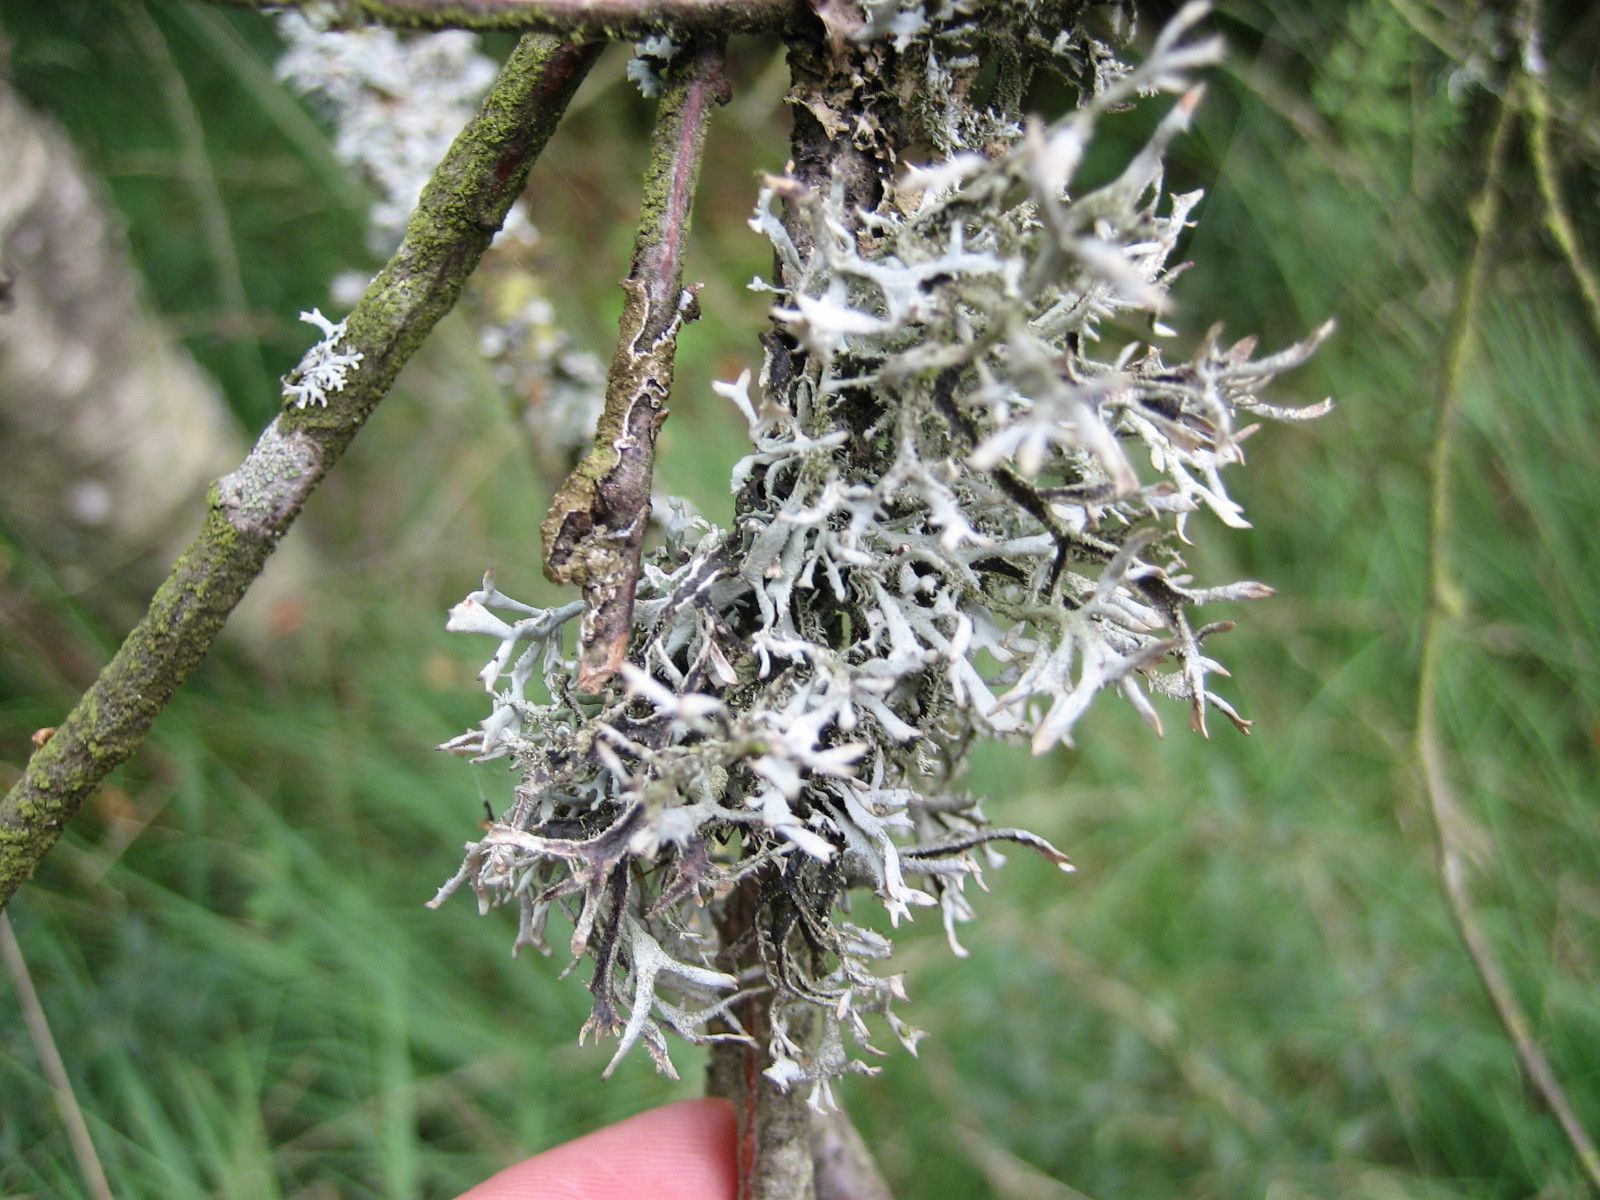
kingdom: Fungi
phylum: Ascomycota
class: Lecanoromycetes
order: Lecanorales
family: Parmeliaceae
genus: Pseudevernia
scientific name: Pseudevernia furfuracea
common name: grå fyrrelav
